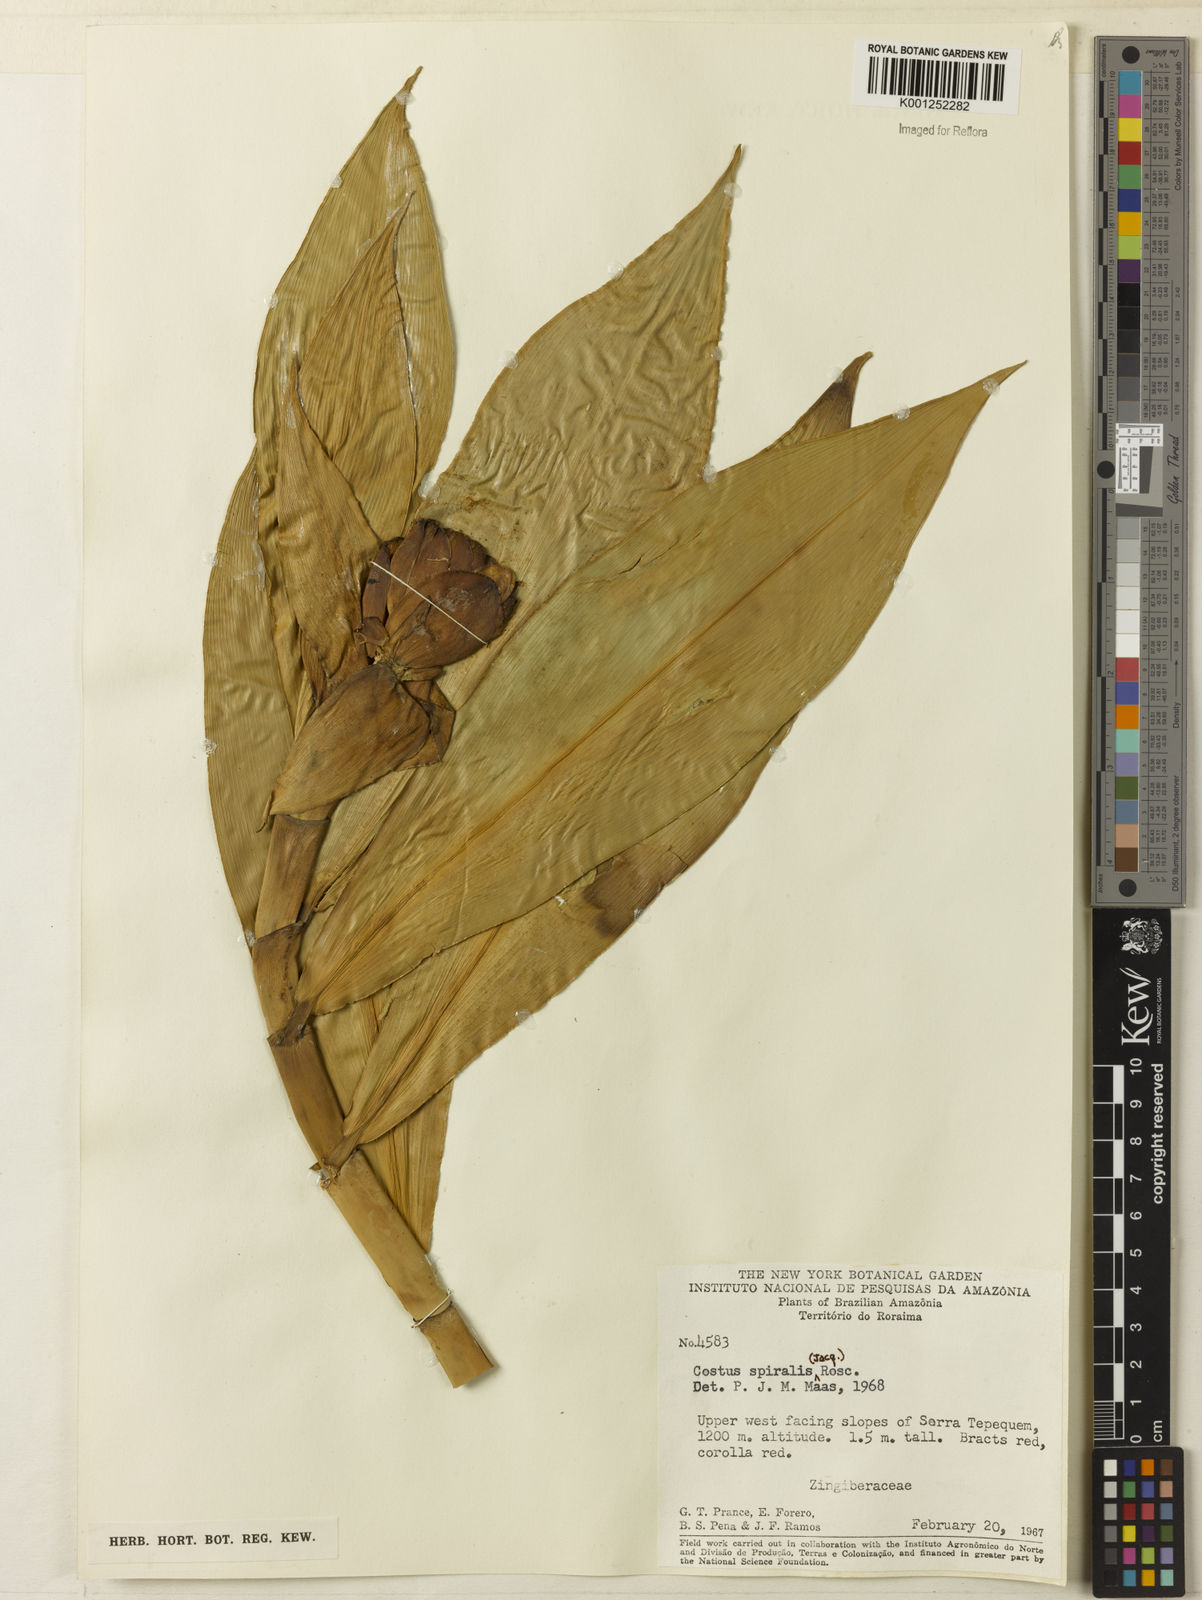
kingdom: Plantae
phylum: Tracheophyta
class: Liliopsida
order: Zingiberales
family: Costaceae
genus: Costus
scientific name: Costus spiralis
